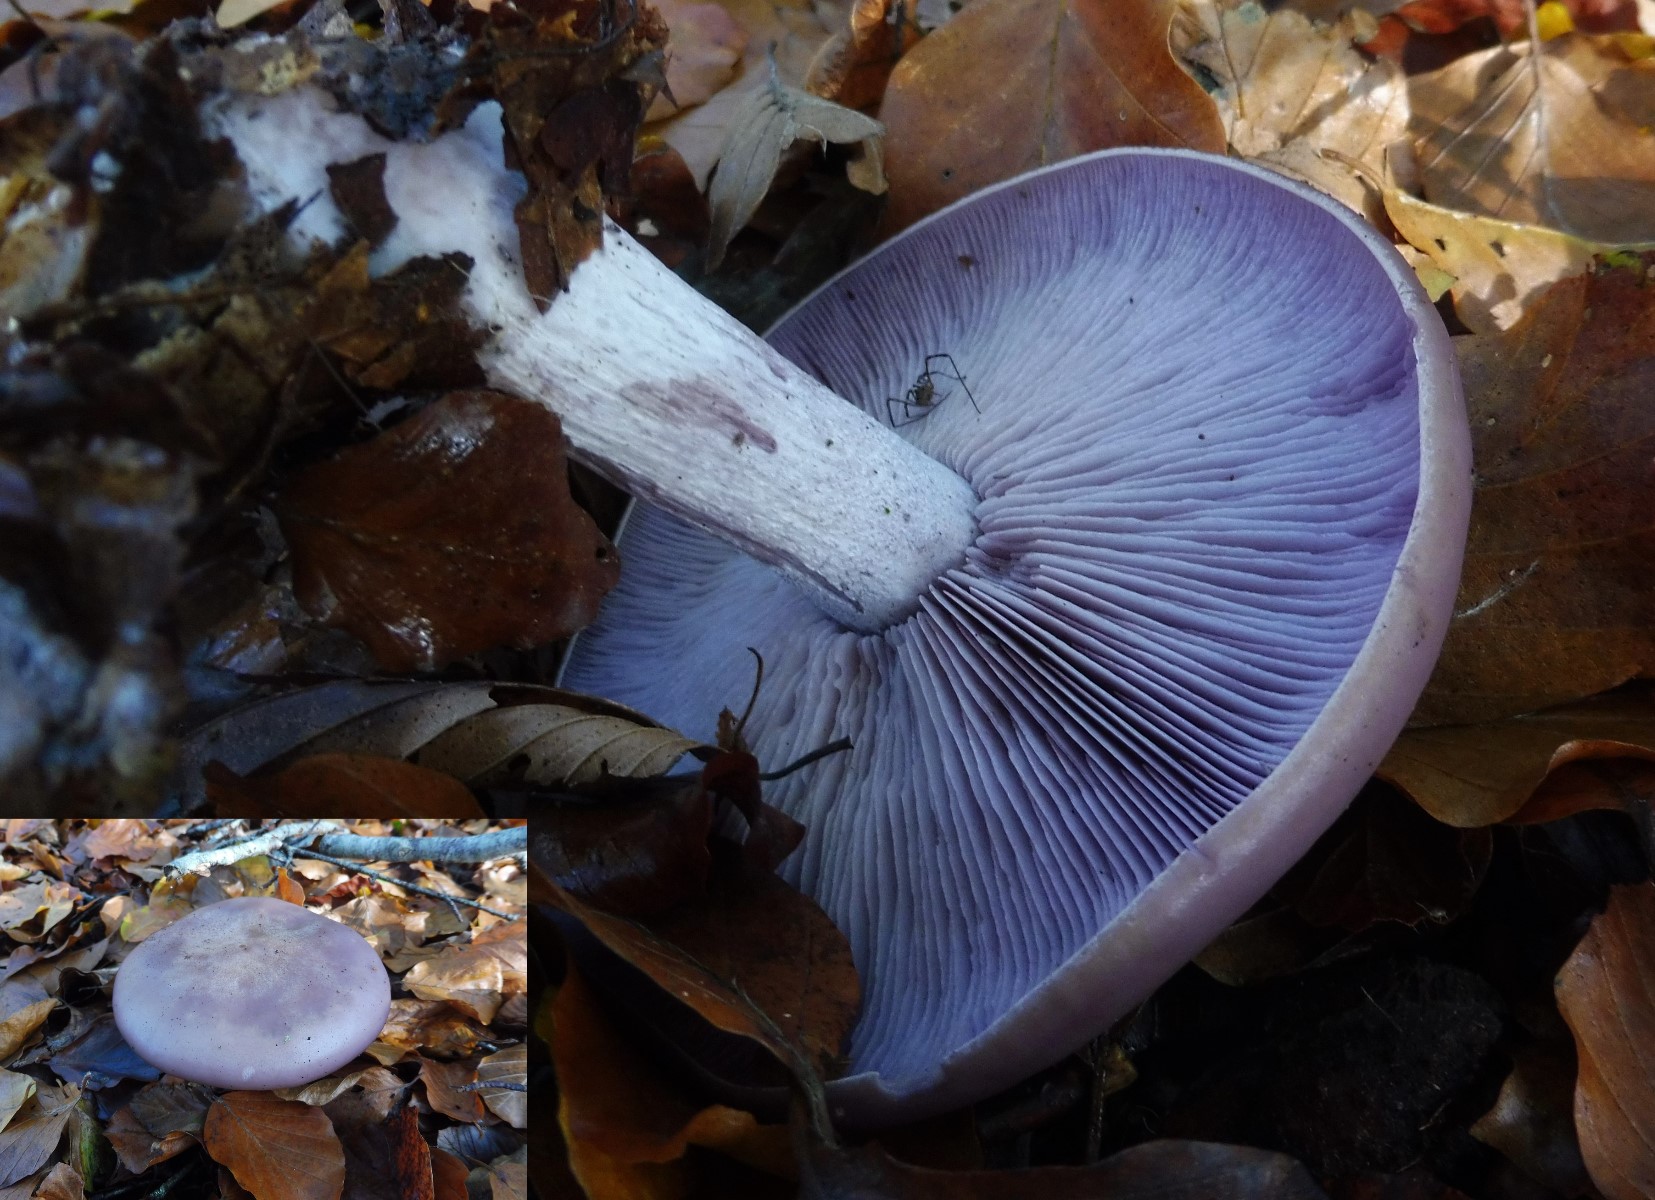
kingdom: Fungi
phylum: Basidiomycota
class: Agaricomycetes
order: Agaricales
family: Tricholomataceae
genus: Lepista
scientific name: Lepista nuda
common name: violet hekseringshat
